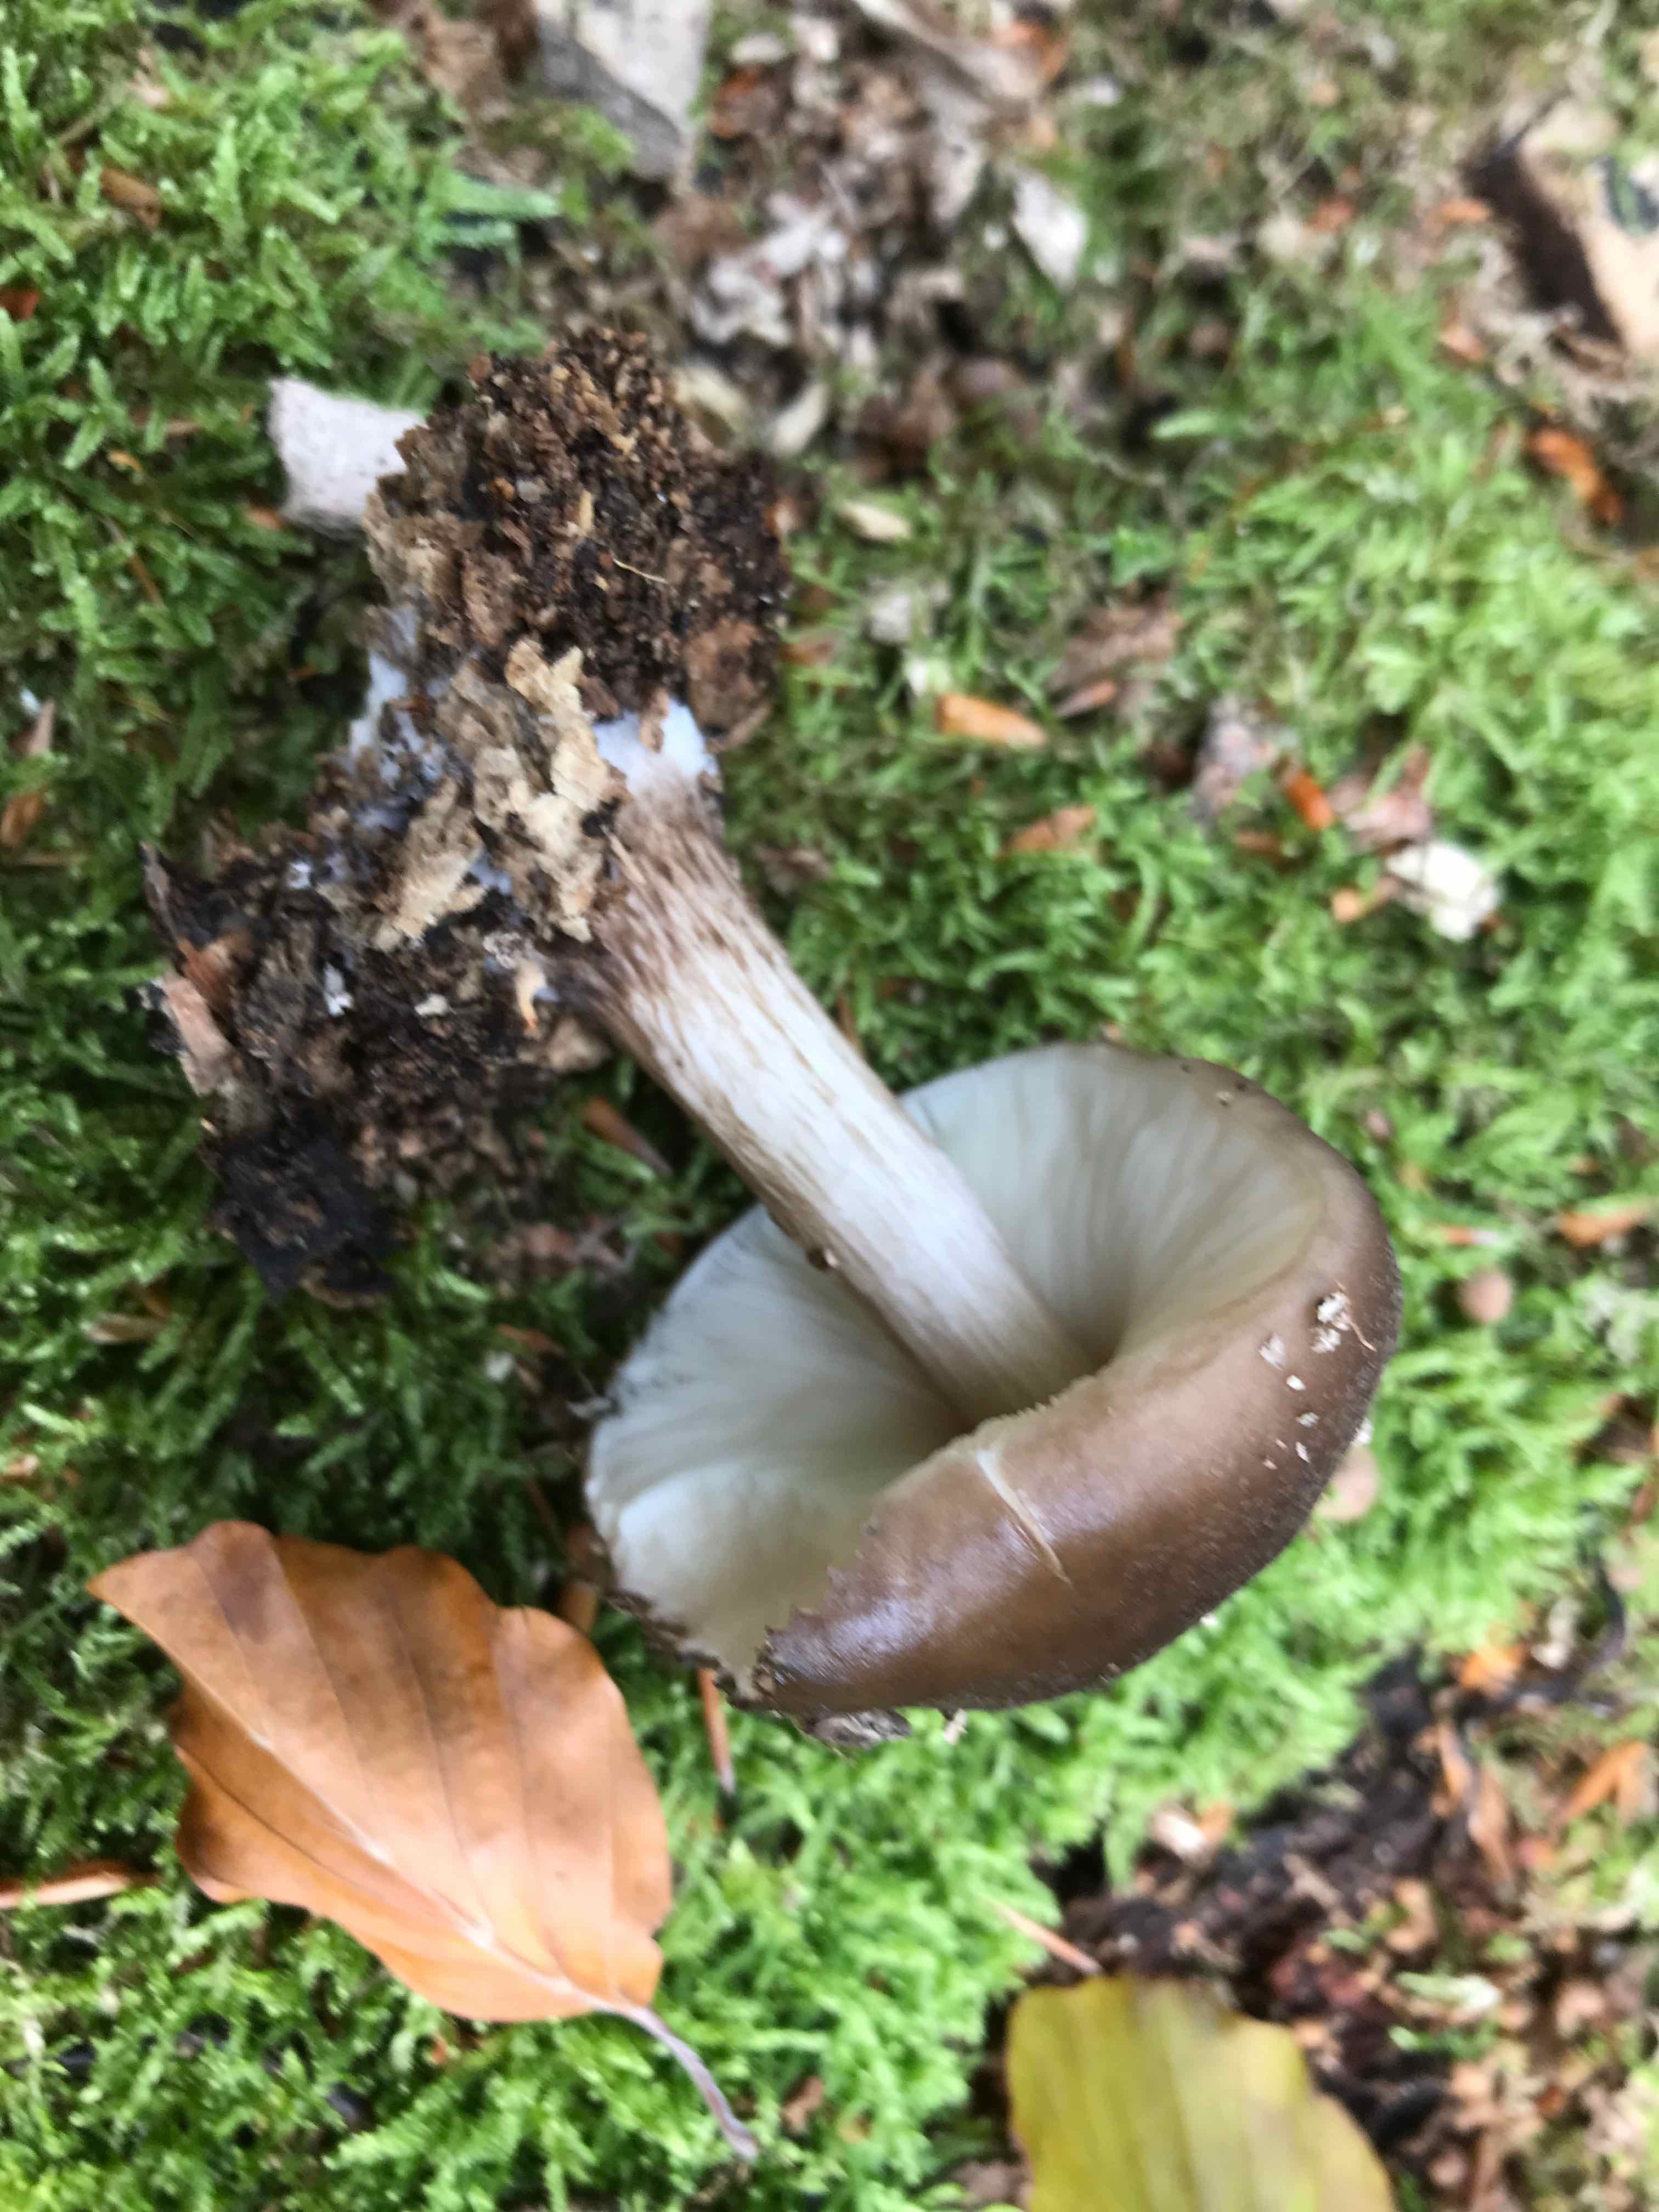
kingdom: Fungi
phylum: Basidiomycota
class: Agaricomycetes
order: Agaricales
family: Pluteaceae
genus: Pluteus
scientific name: Pluteus cervinus
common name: sodfarvet skærmhat
